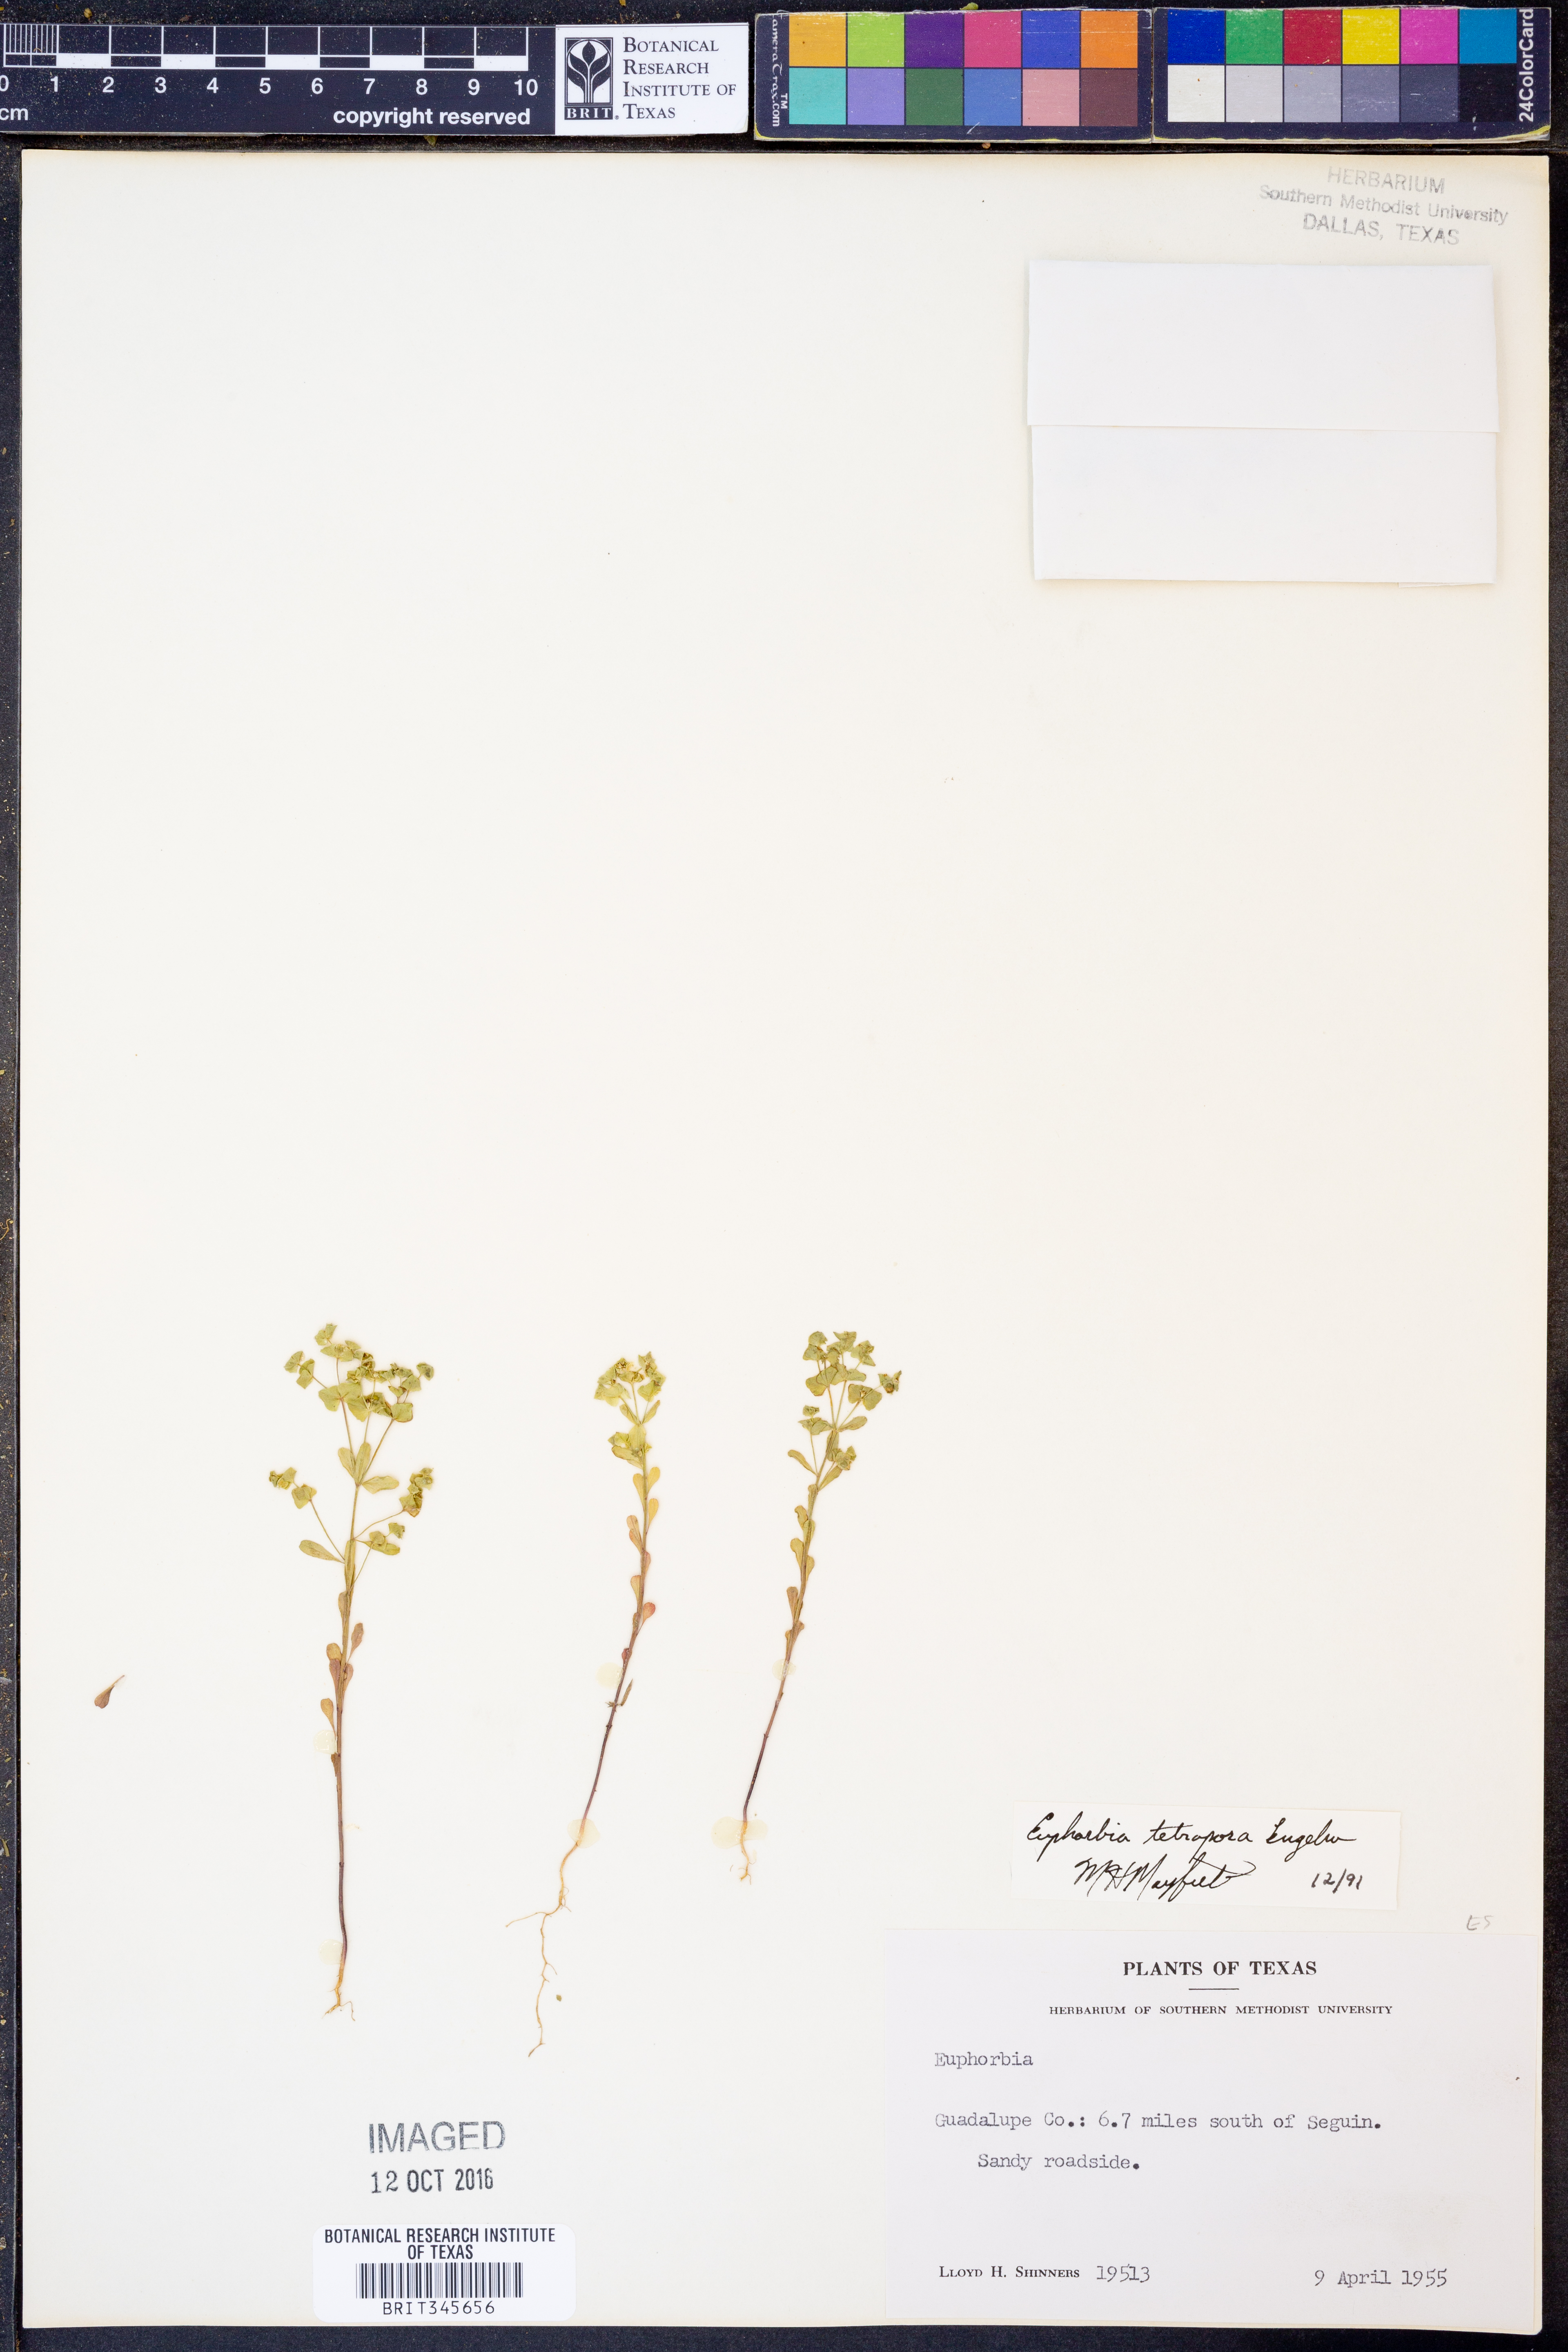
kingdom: Plantae
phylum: Tracheophyta
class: Magnoliopsida
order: Malpighiales
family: Euphorbiaceae
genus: Euphorbia
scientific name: Euphorbia tetrapora
